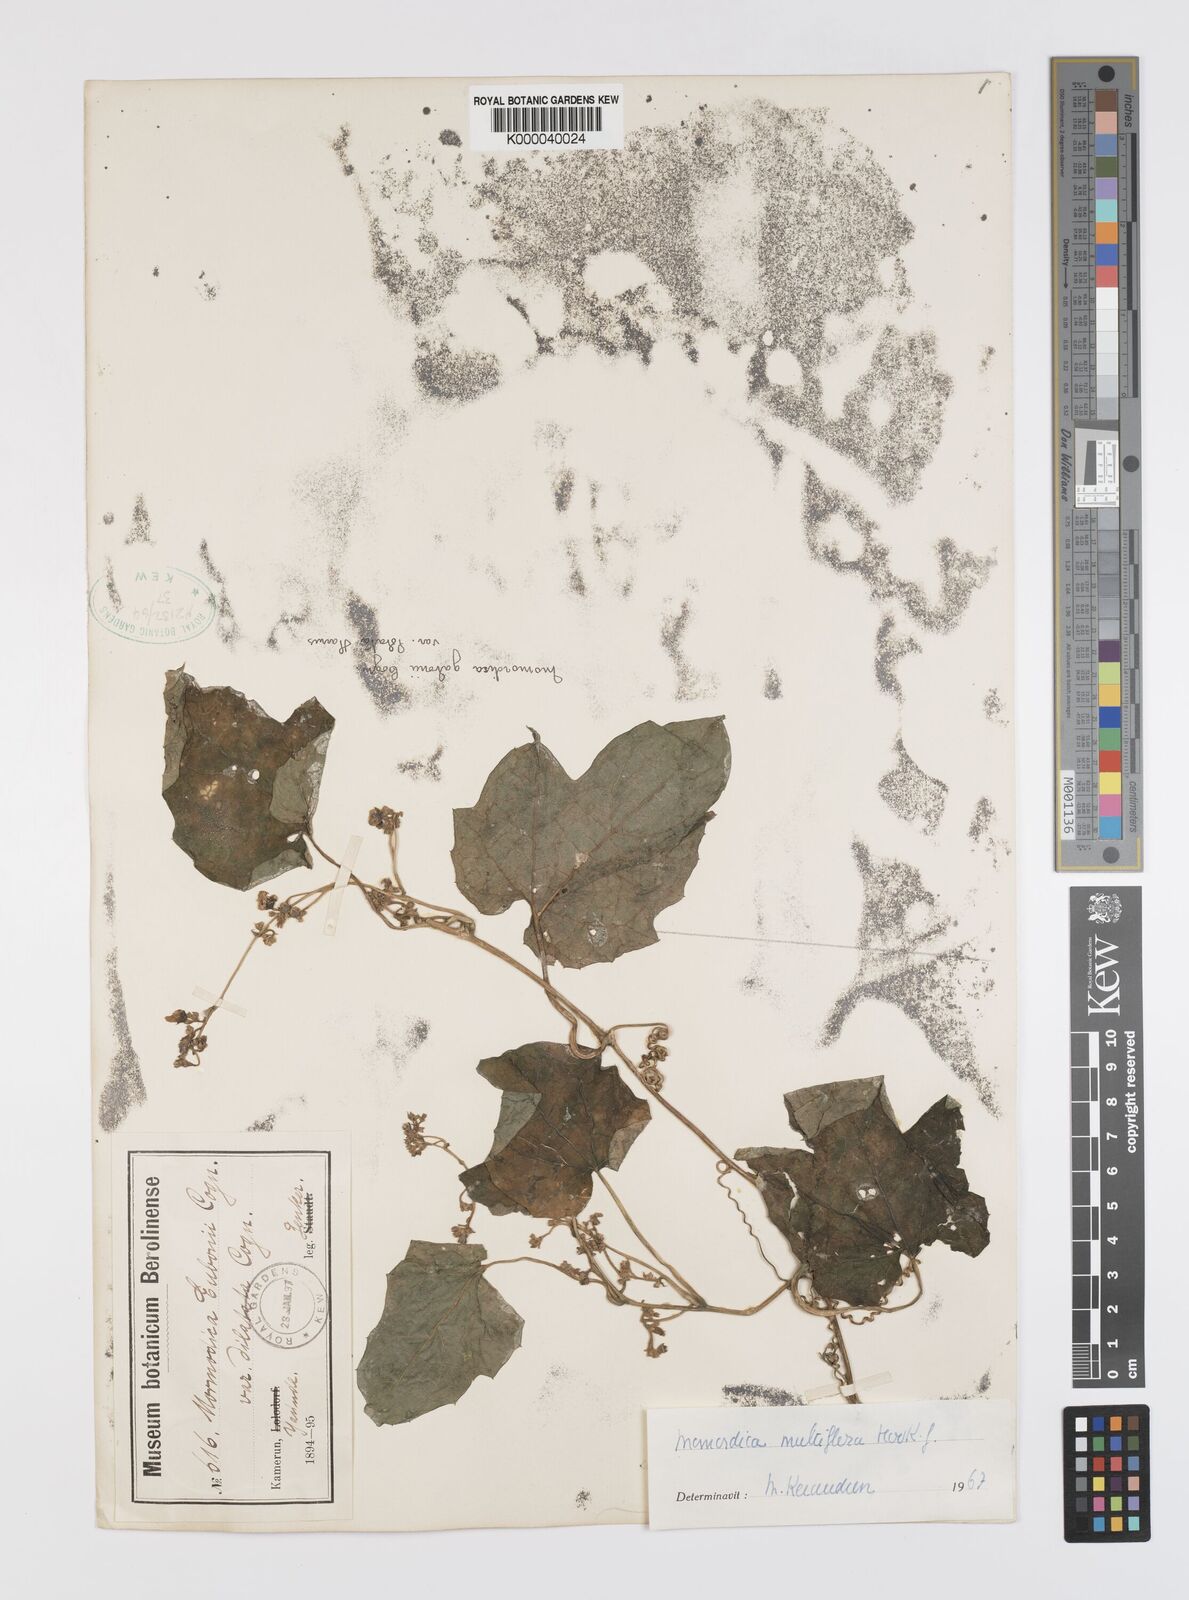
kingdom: Plantae
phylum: Tracheophyta
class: Magnoliopsida
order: Cucurbitales
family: Cucurbitaceae
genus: Momordica
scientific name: Momordica multiflora
